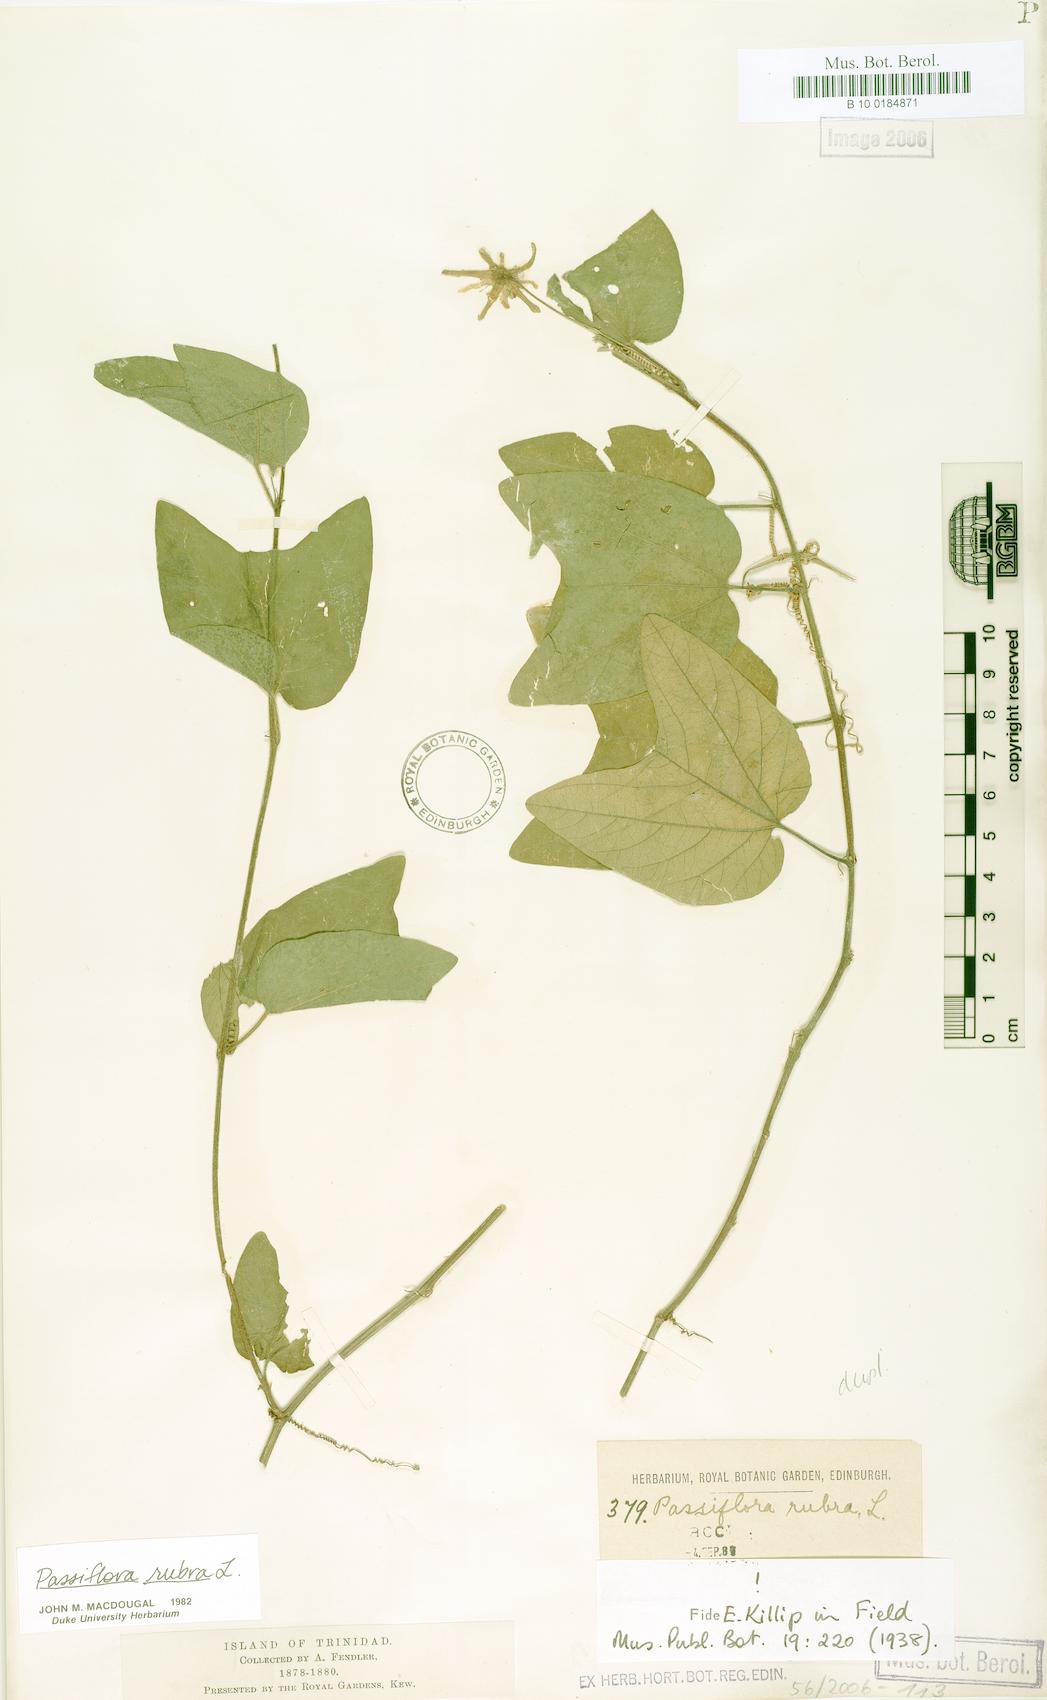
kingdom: Plantae
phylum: Tracheophyta
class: Magnoliopsida
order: Malpighiales
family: Passifloraceae
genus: Passiflora
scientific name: Passiflora rubra
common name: Snakeberry vine
